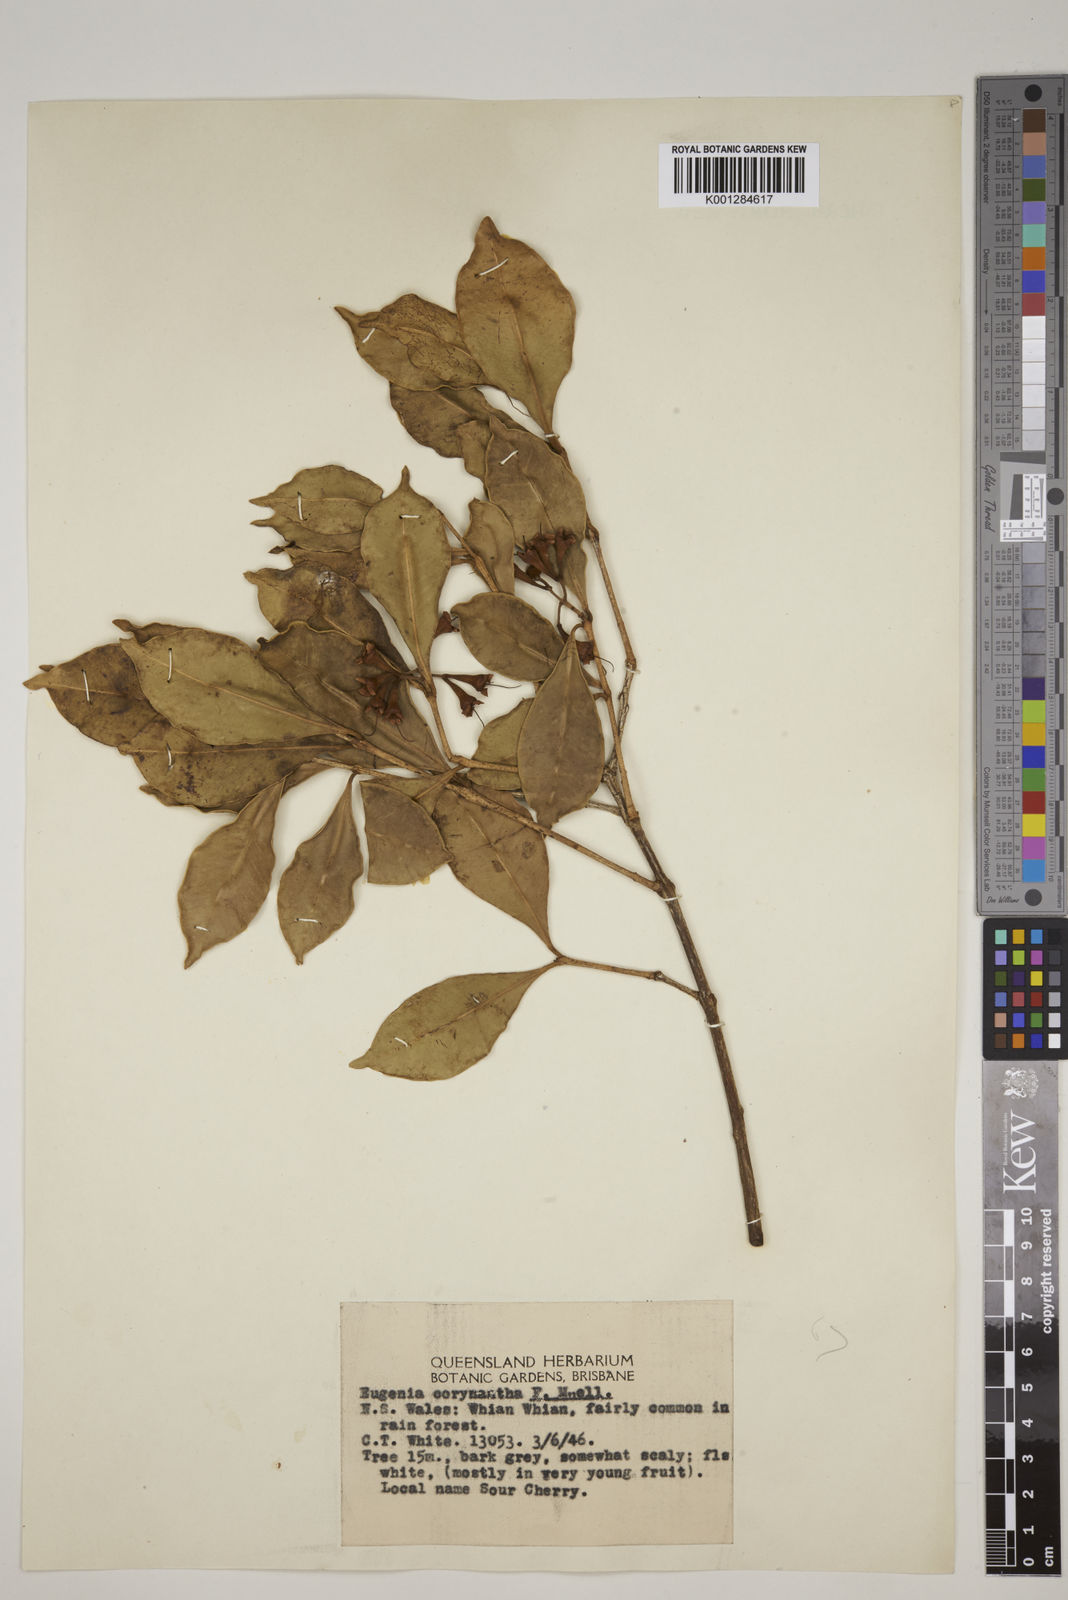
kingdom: Plantae
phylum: Tracheophyta
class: Magnoliopsida
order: Myrtales
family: Myrtaceae
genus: Syzygium
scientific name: Syzygium corynanthum
